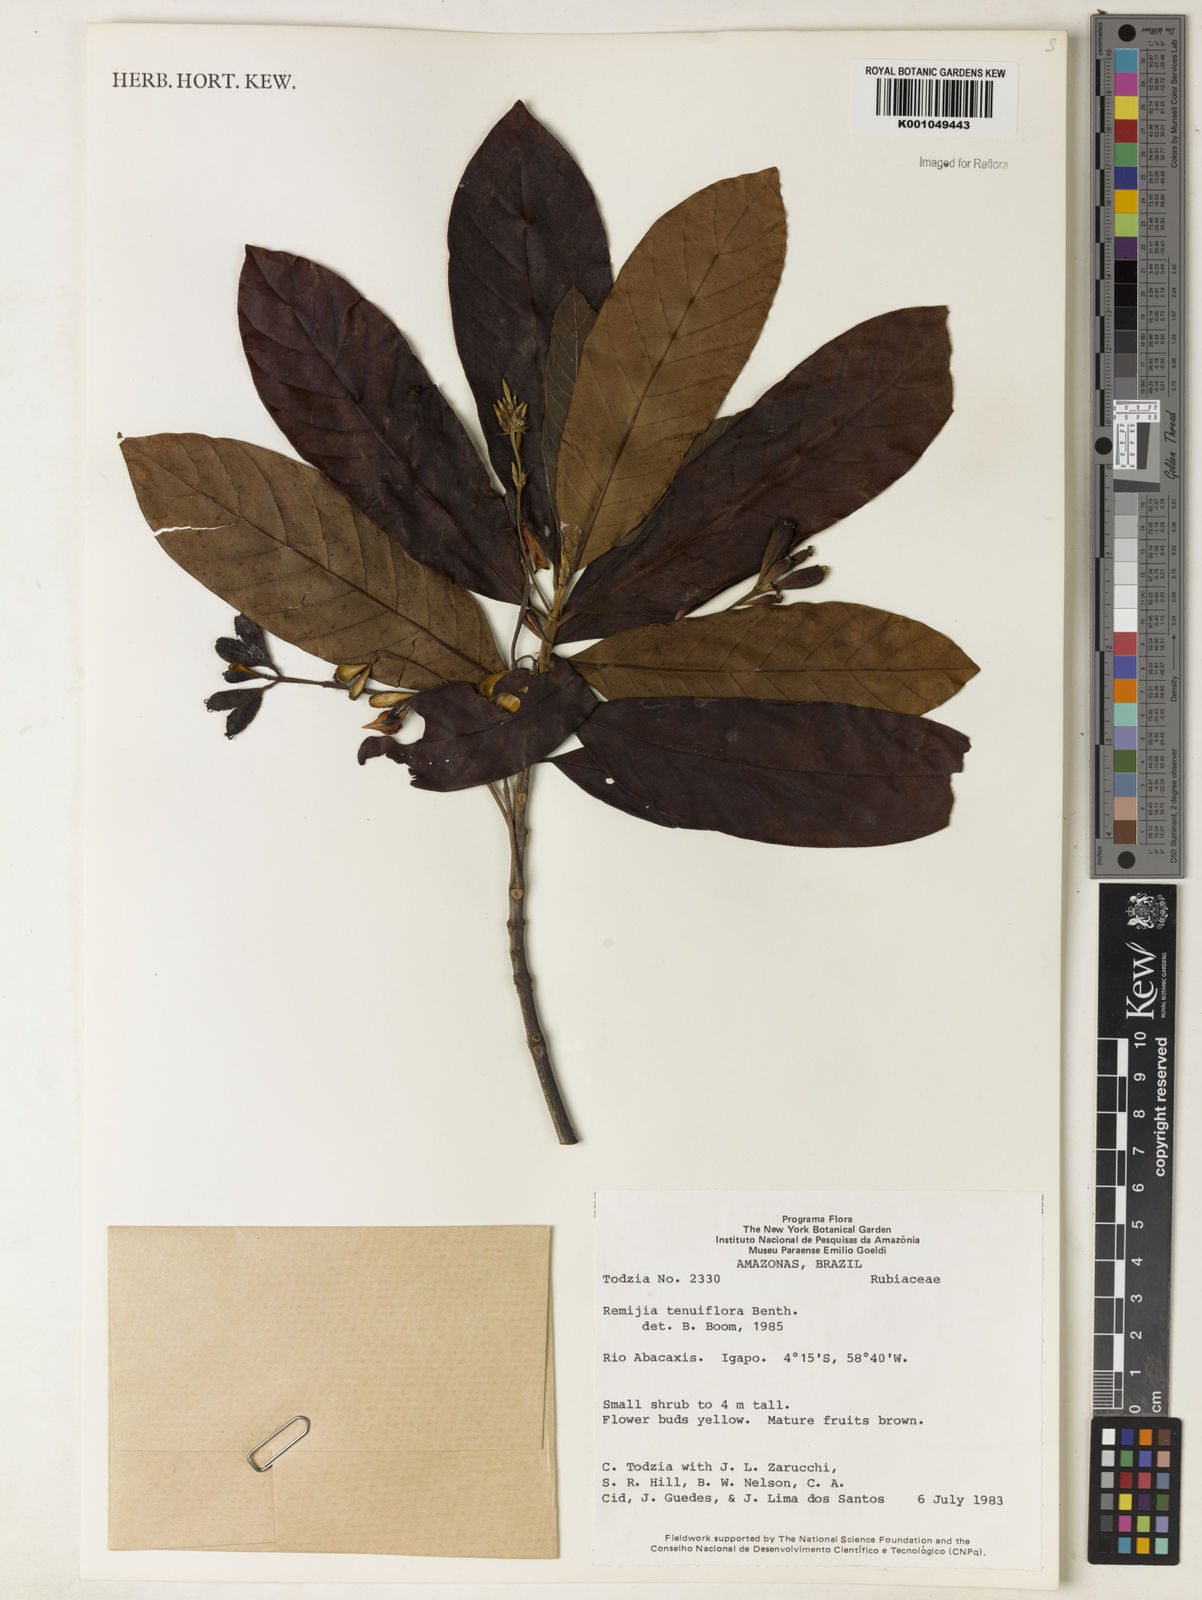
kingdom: Plantae
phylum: Tracheophyta
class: Magnoliopsida
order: Gentianales
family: Rubiaceae
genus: Remijia
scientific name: Remijia tenuiflora
